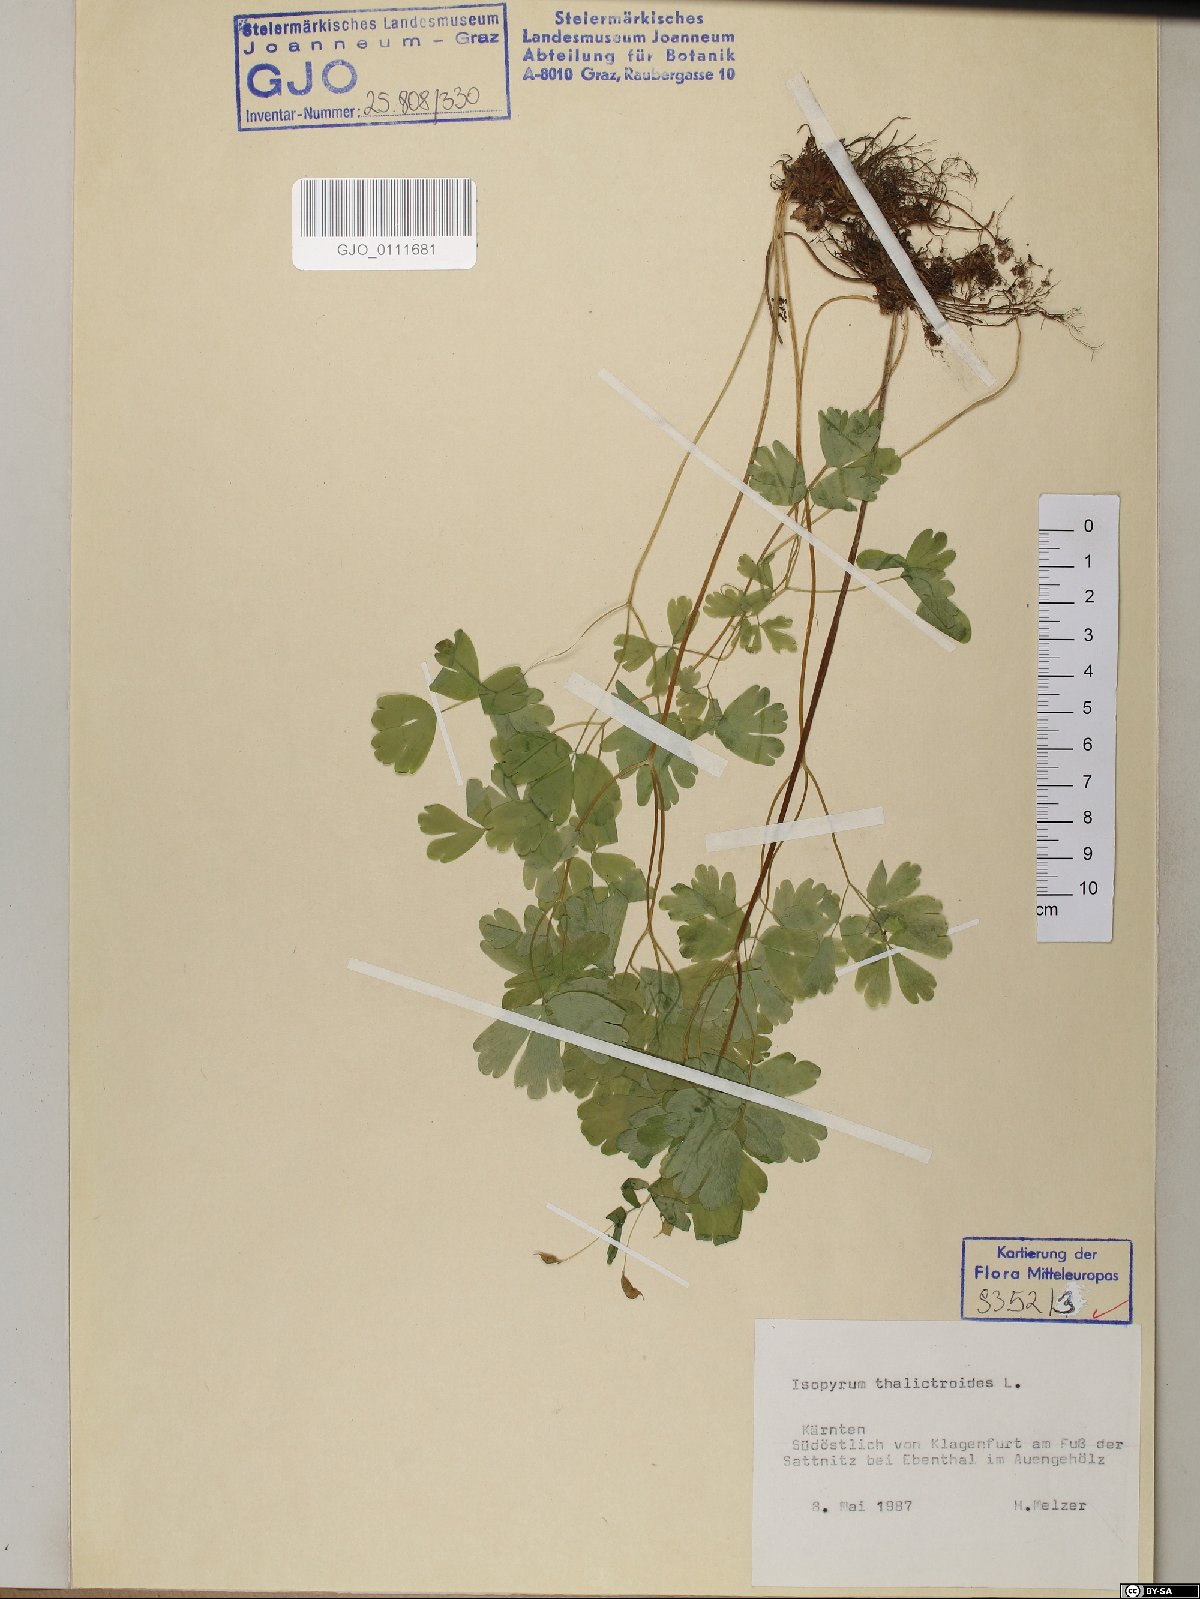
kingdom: Plantae
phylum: Tracheophyta
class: Magnoliopsida
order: Ranunculales
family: Ranunculaceae
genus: Isopyrum
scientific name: Isopyrum thalictroides
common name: Isopyrum
